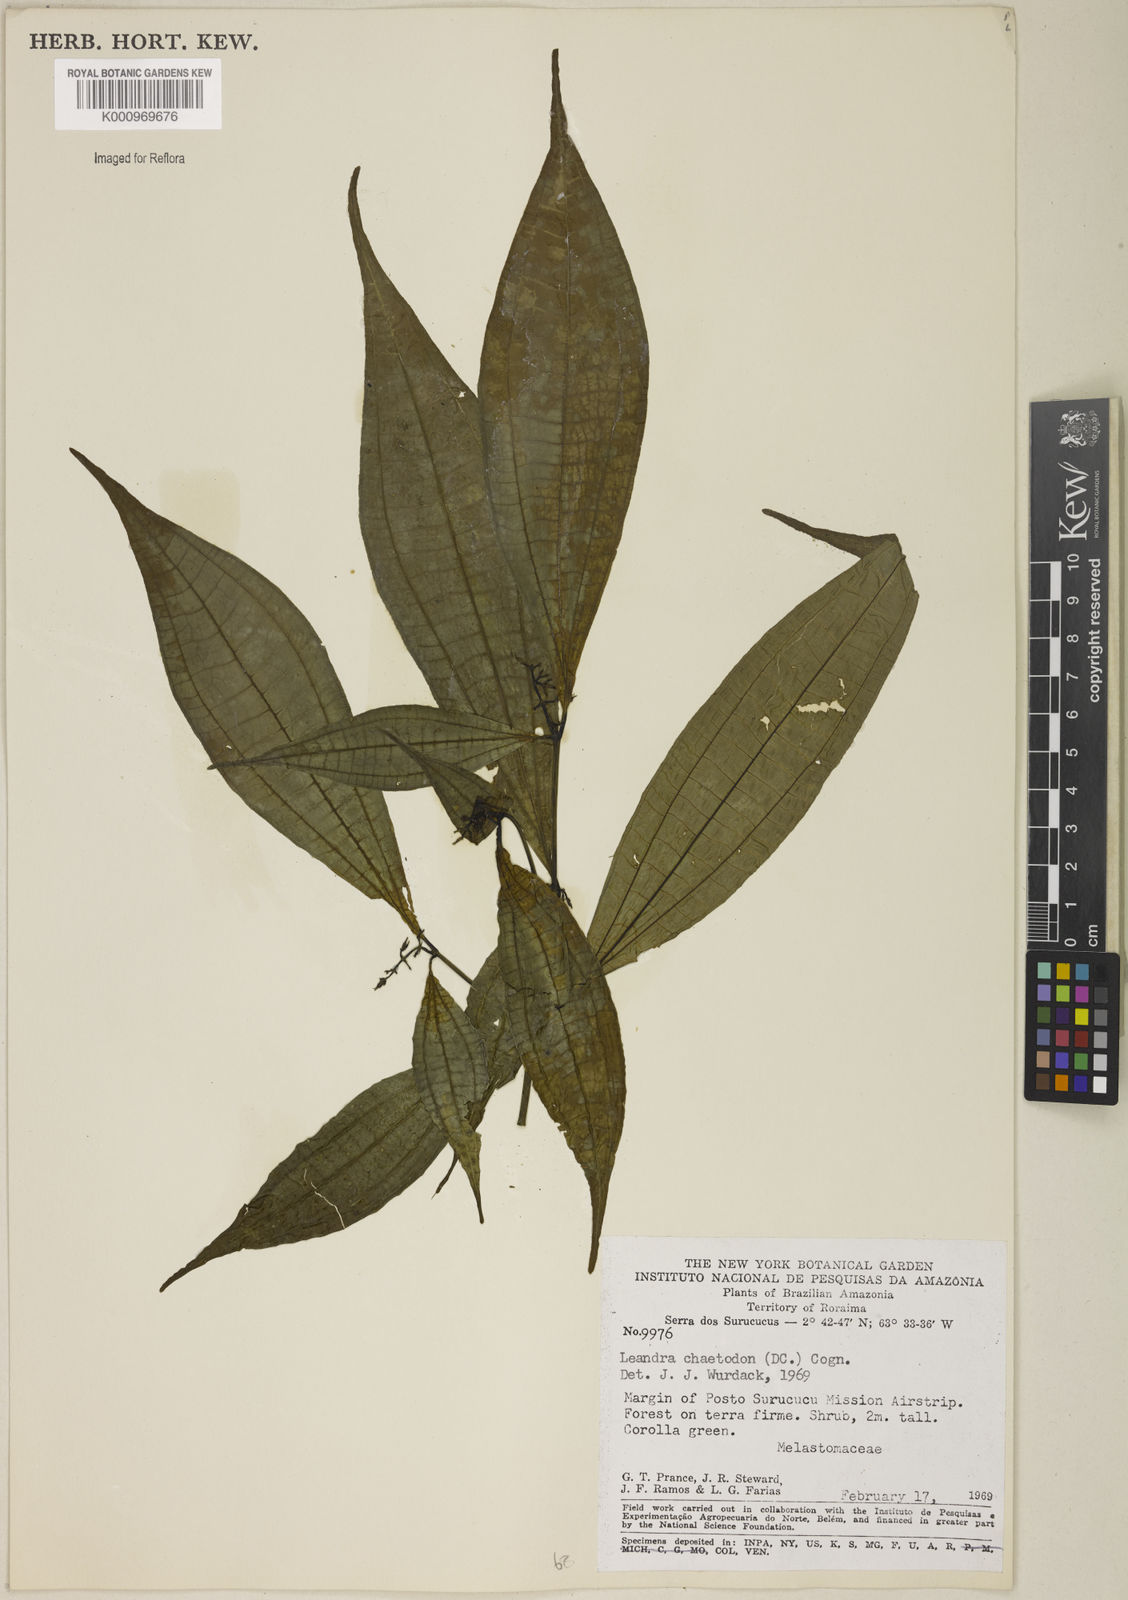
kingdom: Plantae
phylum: Tracheophyta
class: Magnoliopsida
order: Myrtales
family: Melastomataceae
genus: Miconia
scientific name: Miconia chaetodonta
